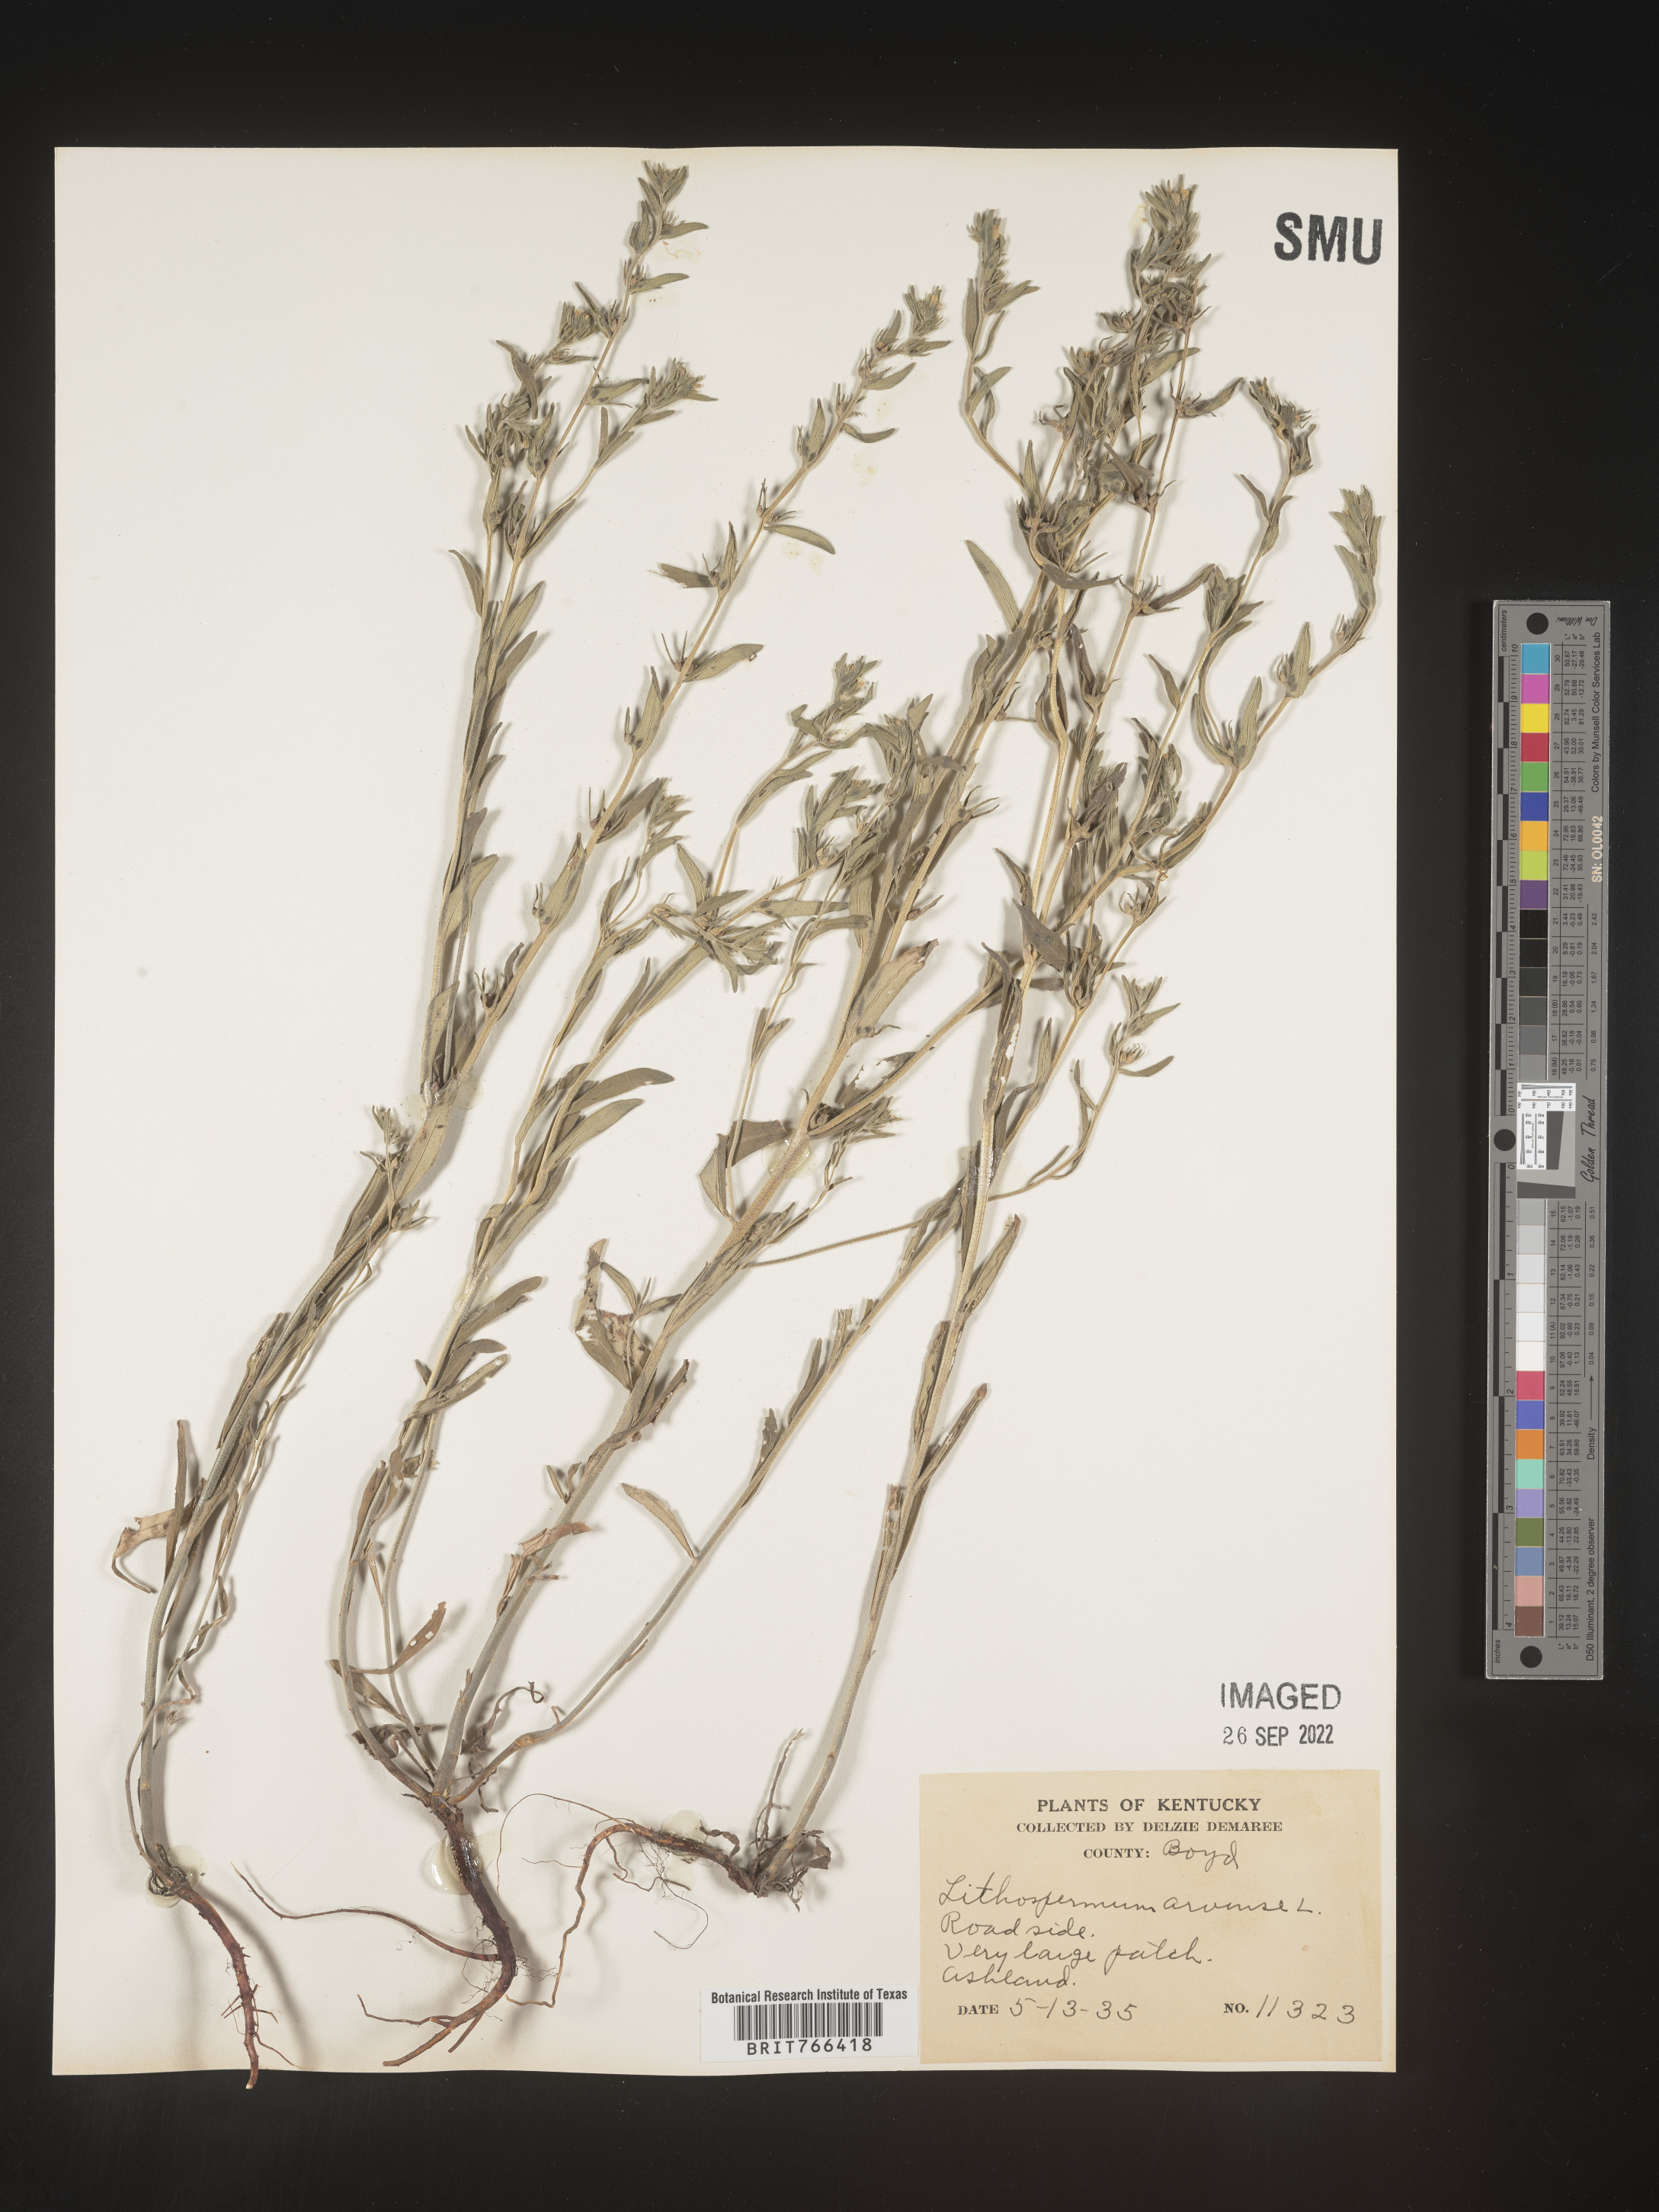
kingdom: Plantae
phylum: Tracheophyta
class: Magnoliopsida
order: Boraginales
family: Boraginaceae
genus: Buglossoides
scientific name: Buglossoides arvensis
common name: Corn gromwell
